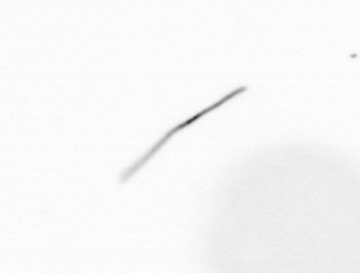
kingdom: Chromista
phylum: Ochrophyta
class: Bacillariophyceae
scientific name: Bacillariophyceae
